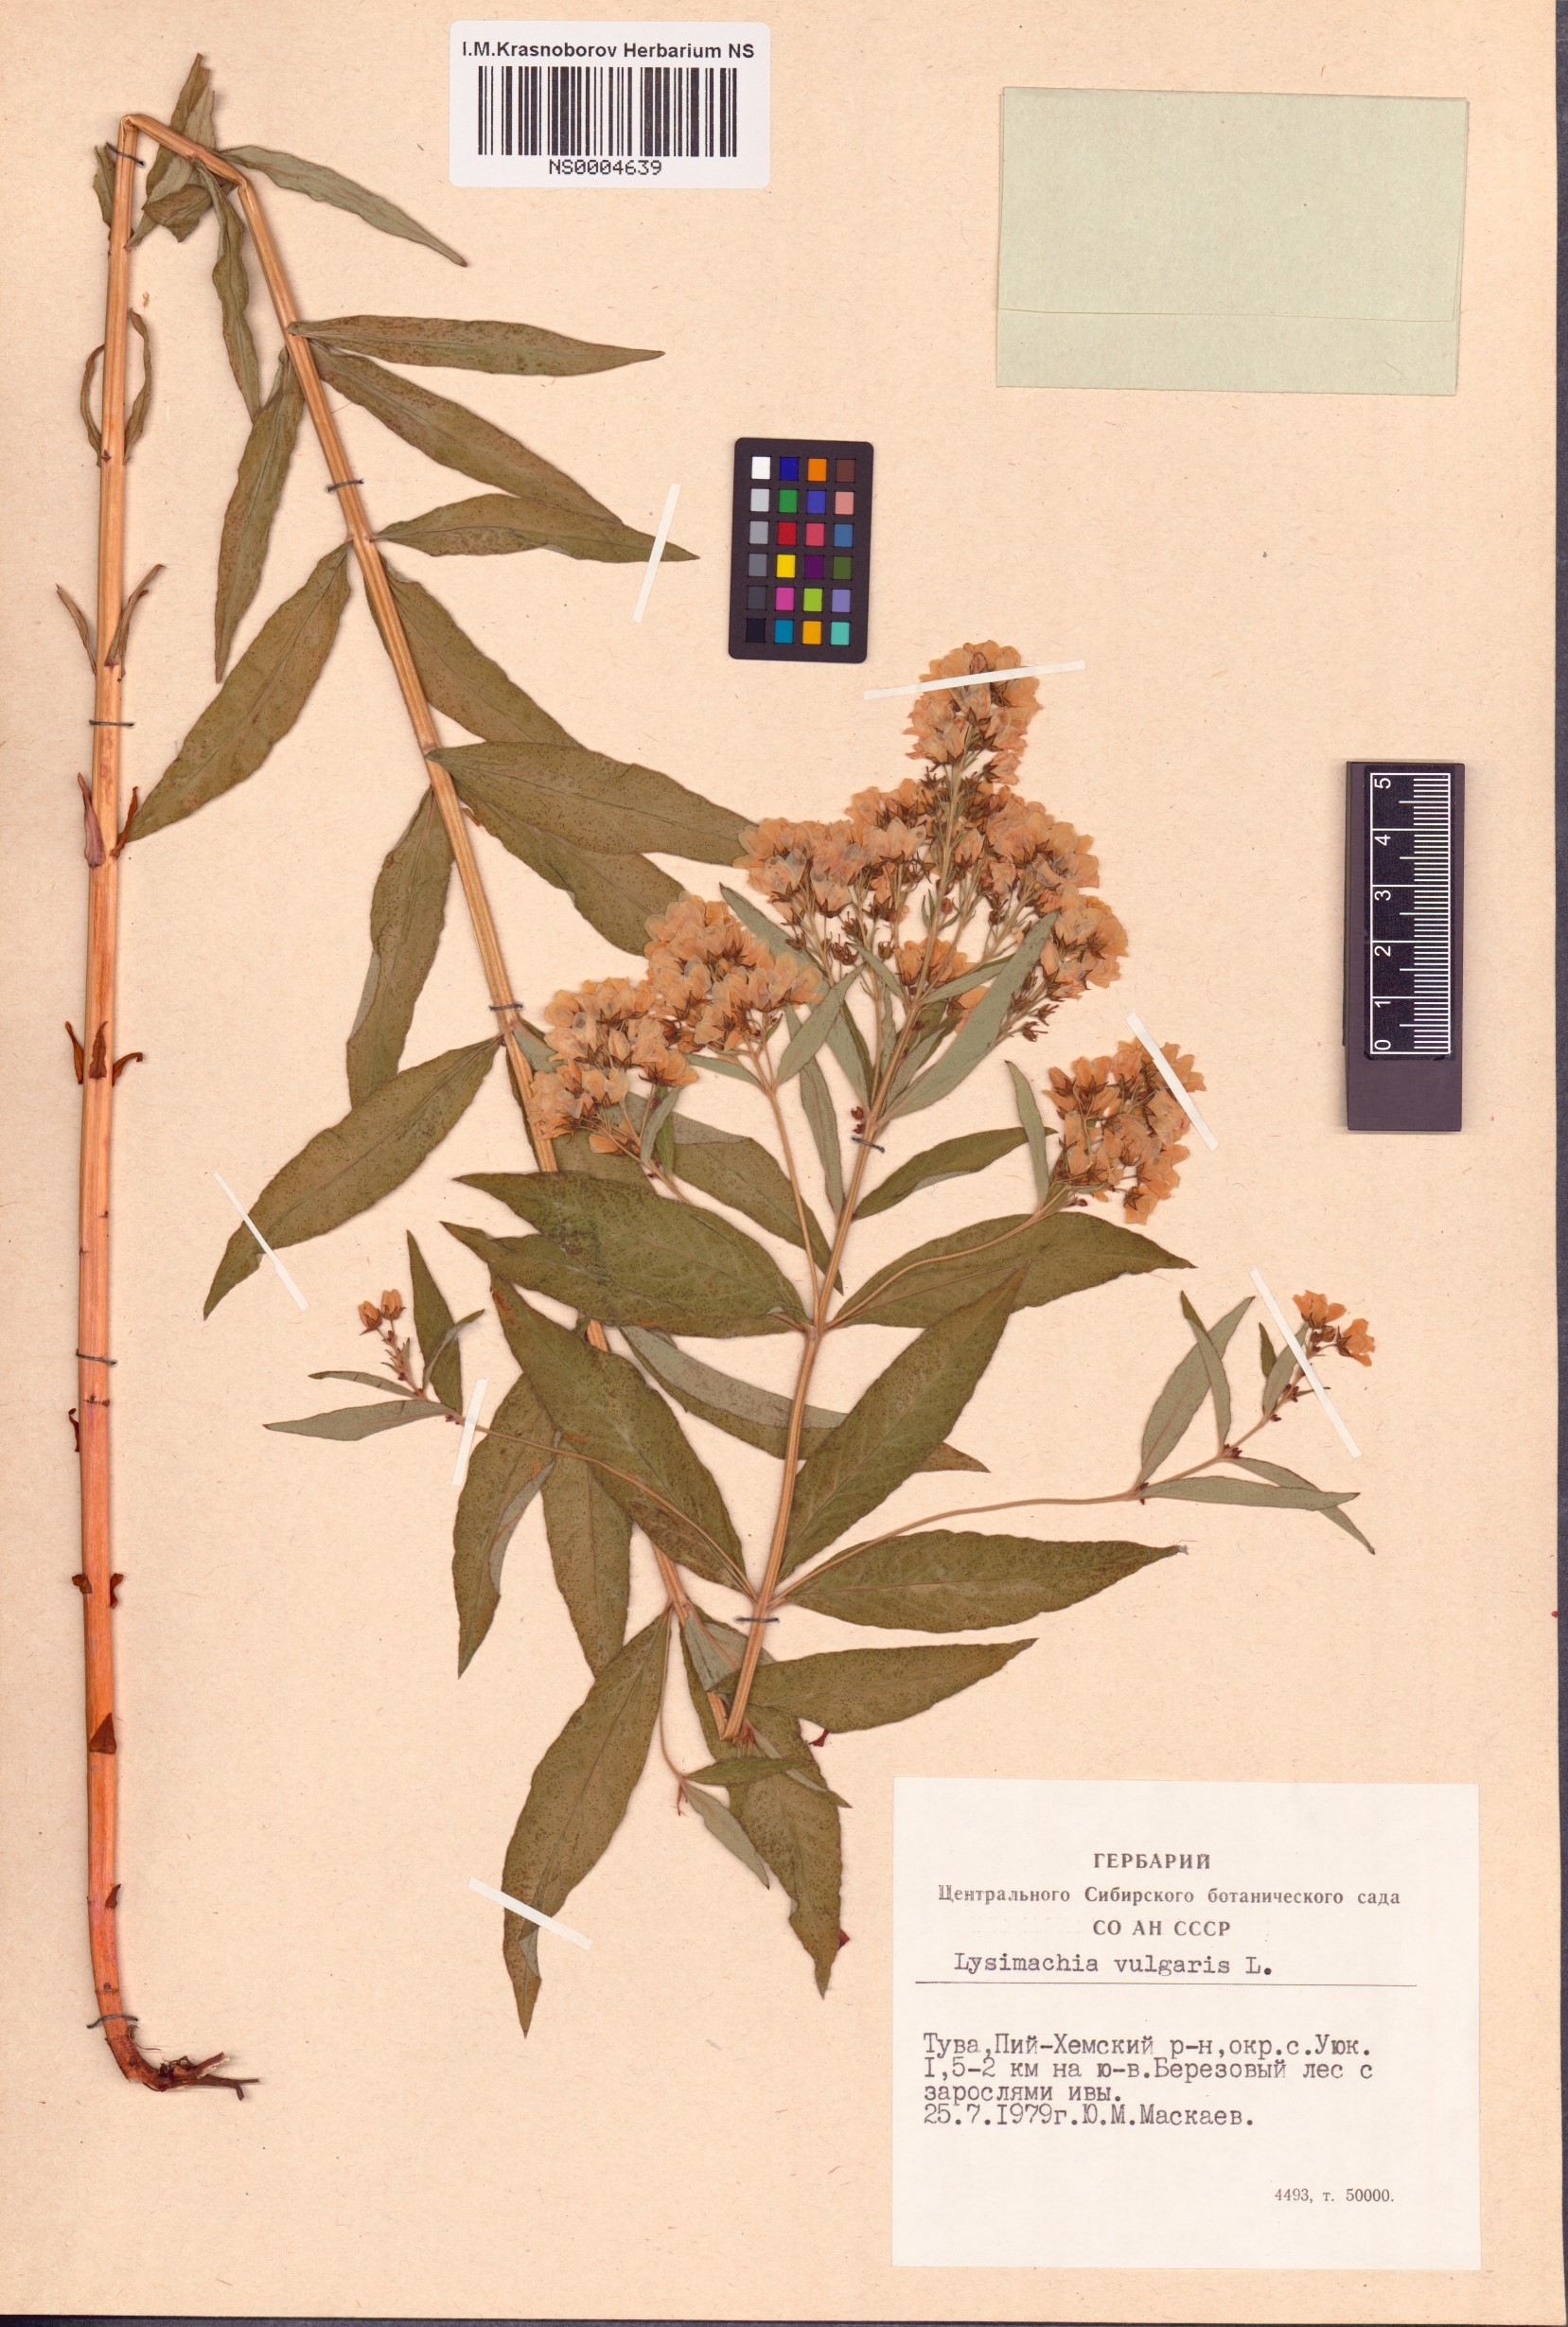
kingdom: Plantae
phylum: Tracheophyta
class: Magnoliopsida
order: Ericales
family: Primulaceae
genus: Lysimachia
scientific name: Lysimachia vulgaris
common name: Yellow loosestrife
